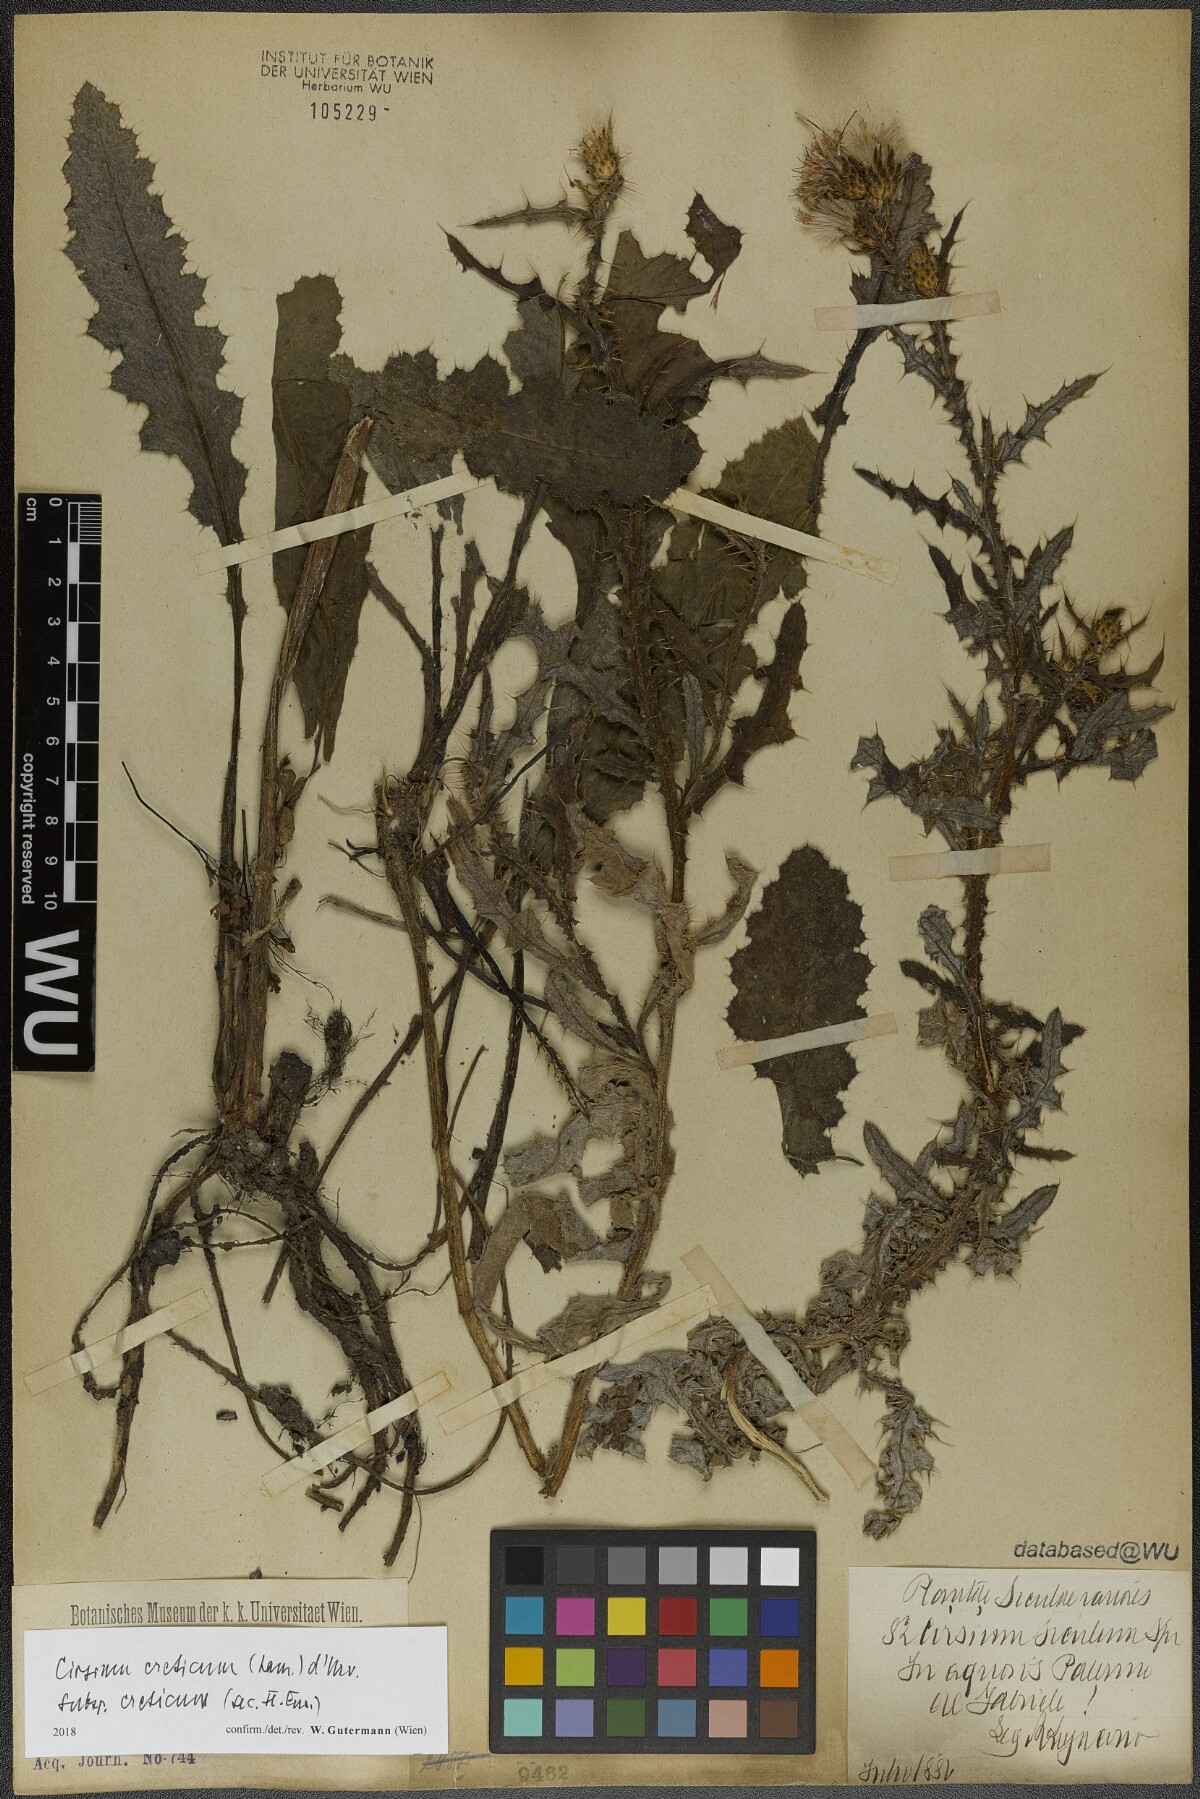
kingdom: Plantae
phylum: Tracheophyta
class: Magnoliopsida
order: Asterales
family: Asteraceae
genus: Cirsium
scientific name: Cirsium creticum
